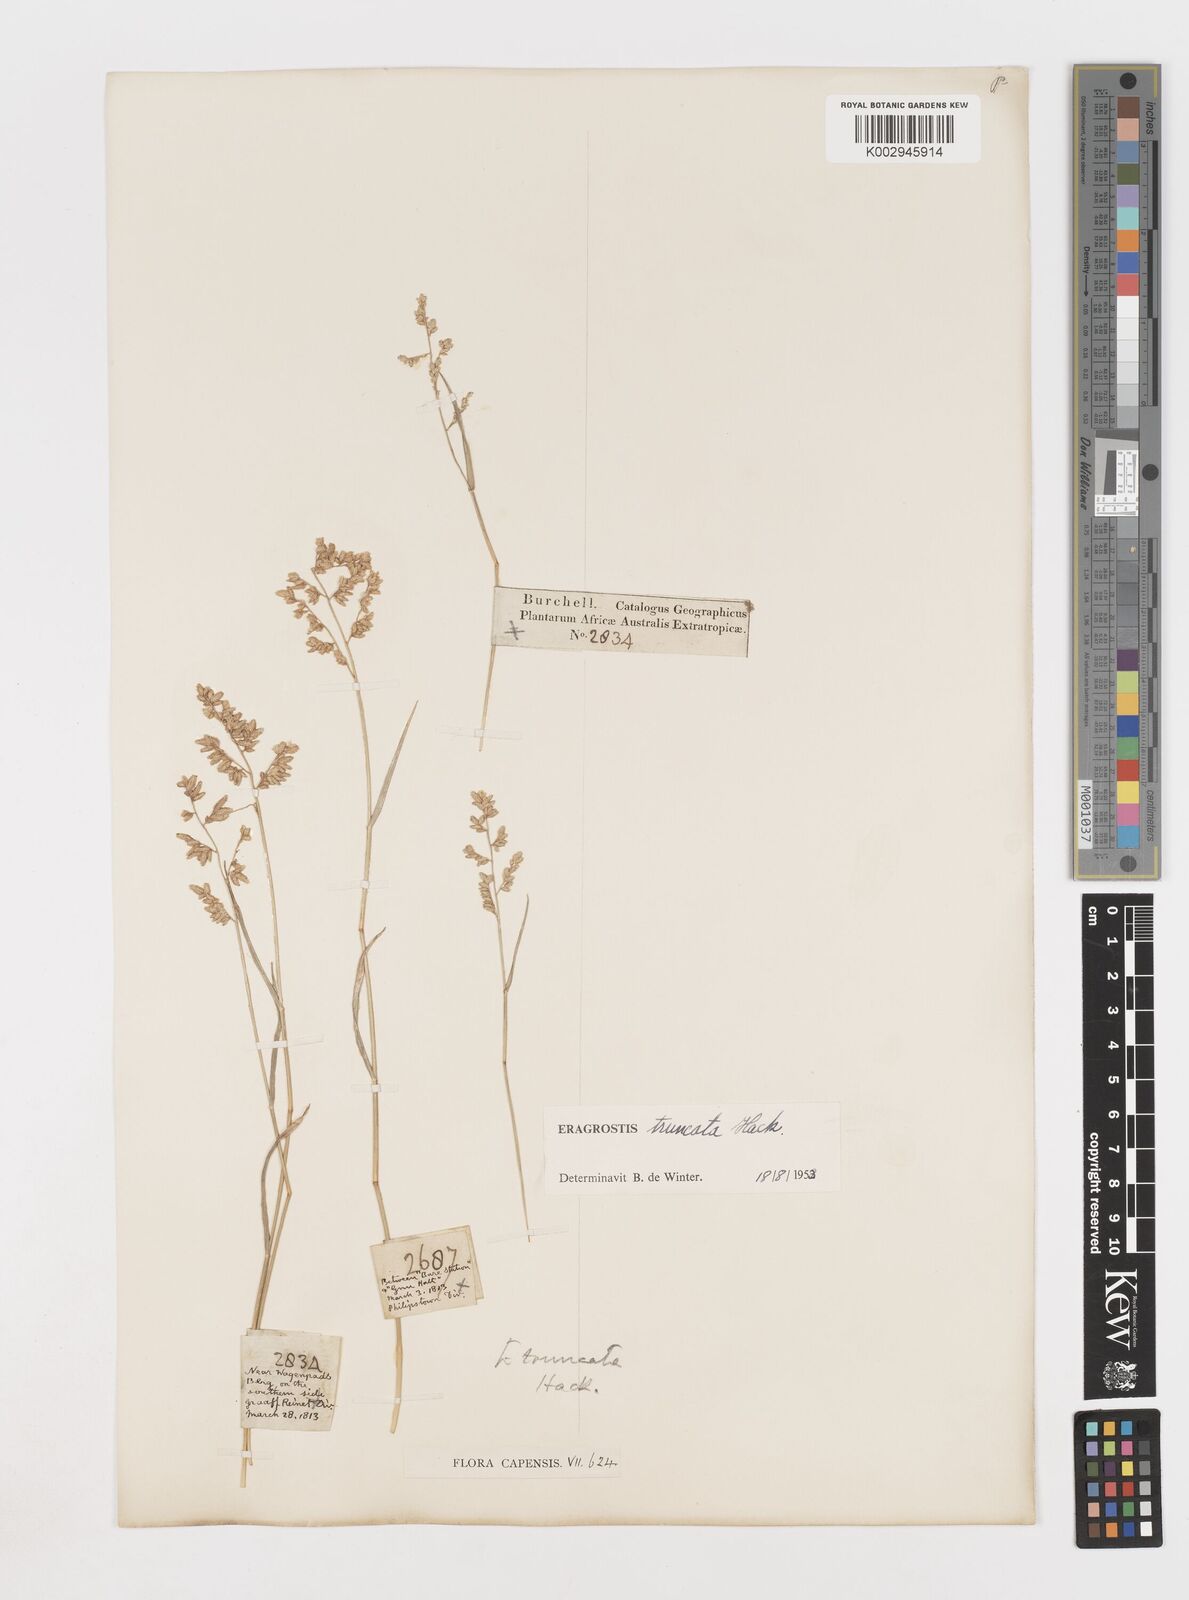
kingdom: Plantae
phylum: Tracheophyta
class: Liliopsida
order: Poales
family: Poaceae
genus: Eragrostis
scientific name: Eragrostis truncata
